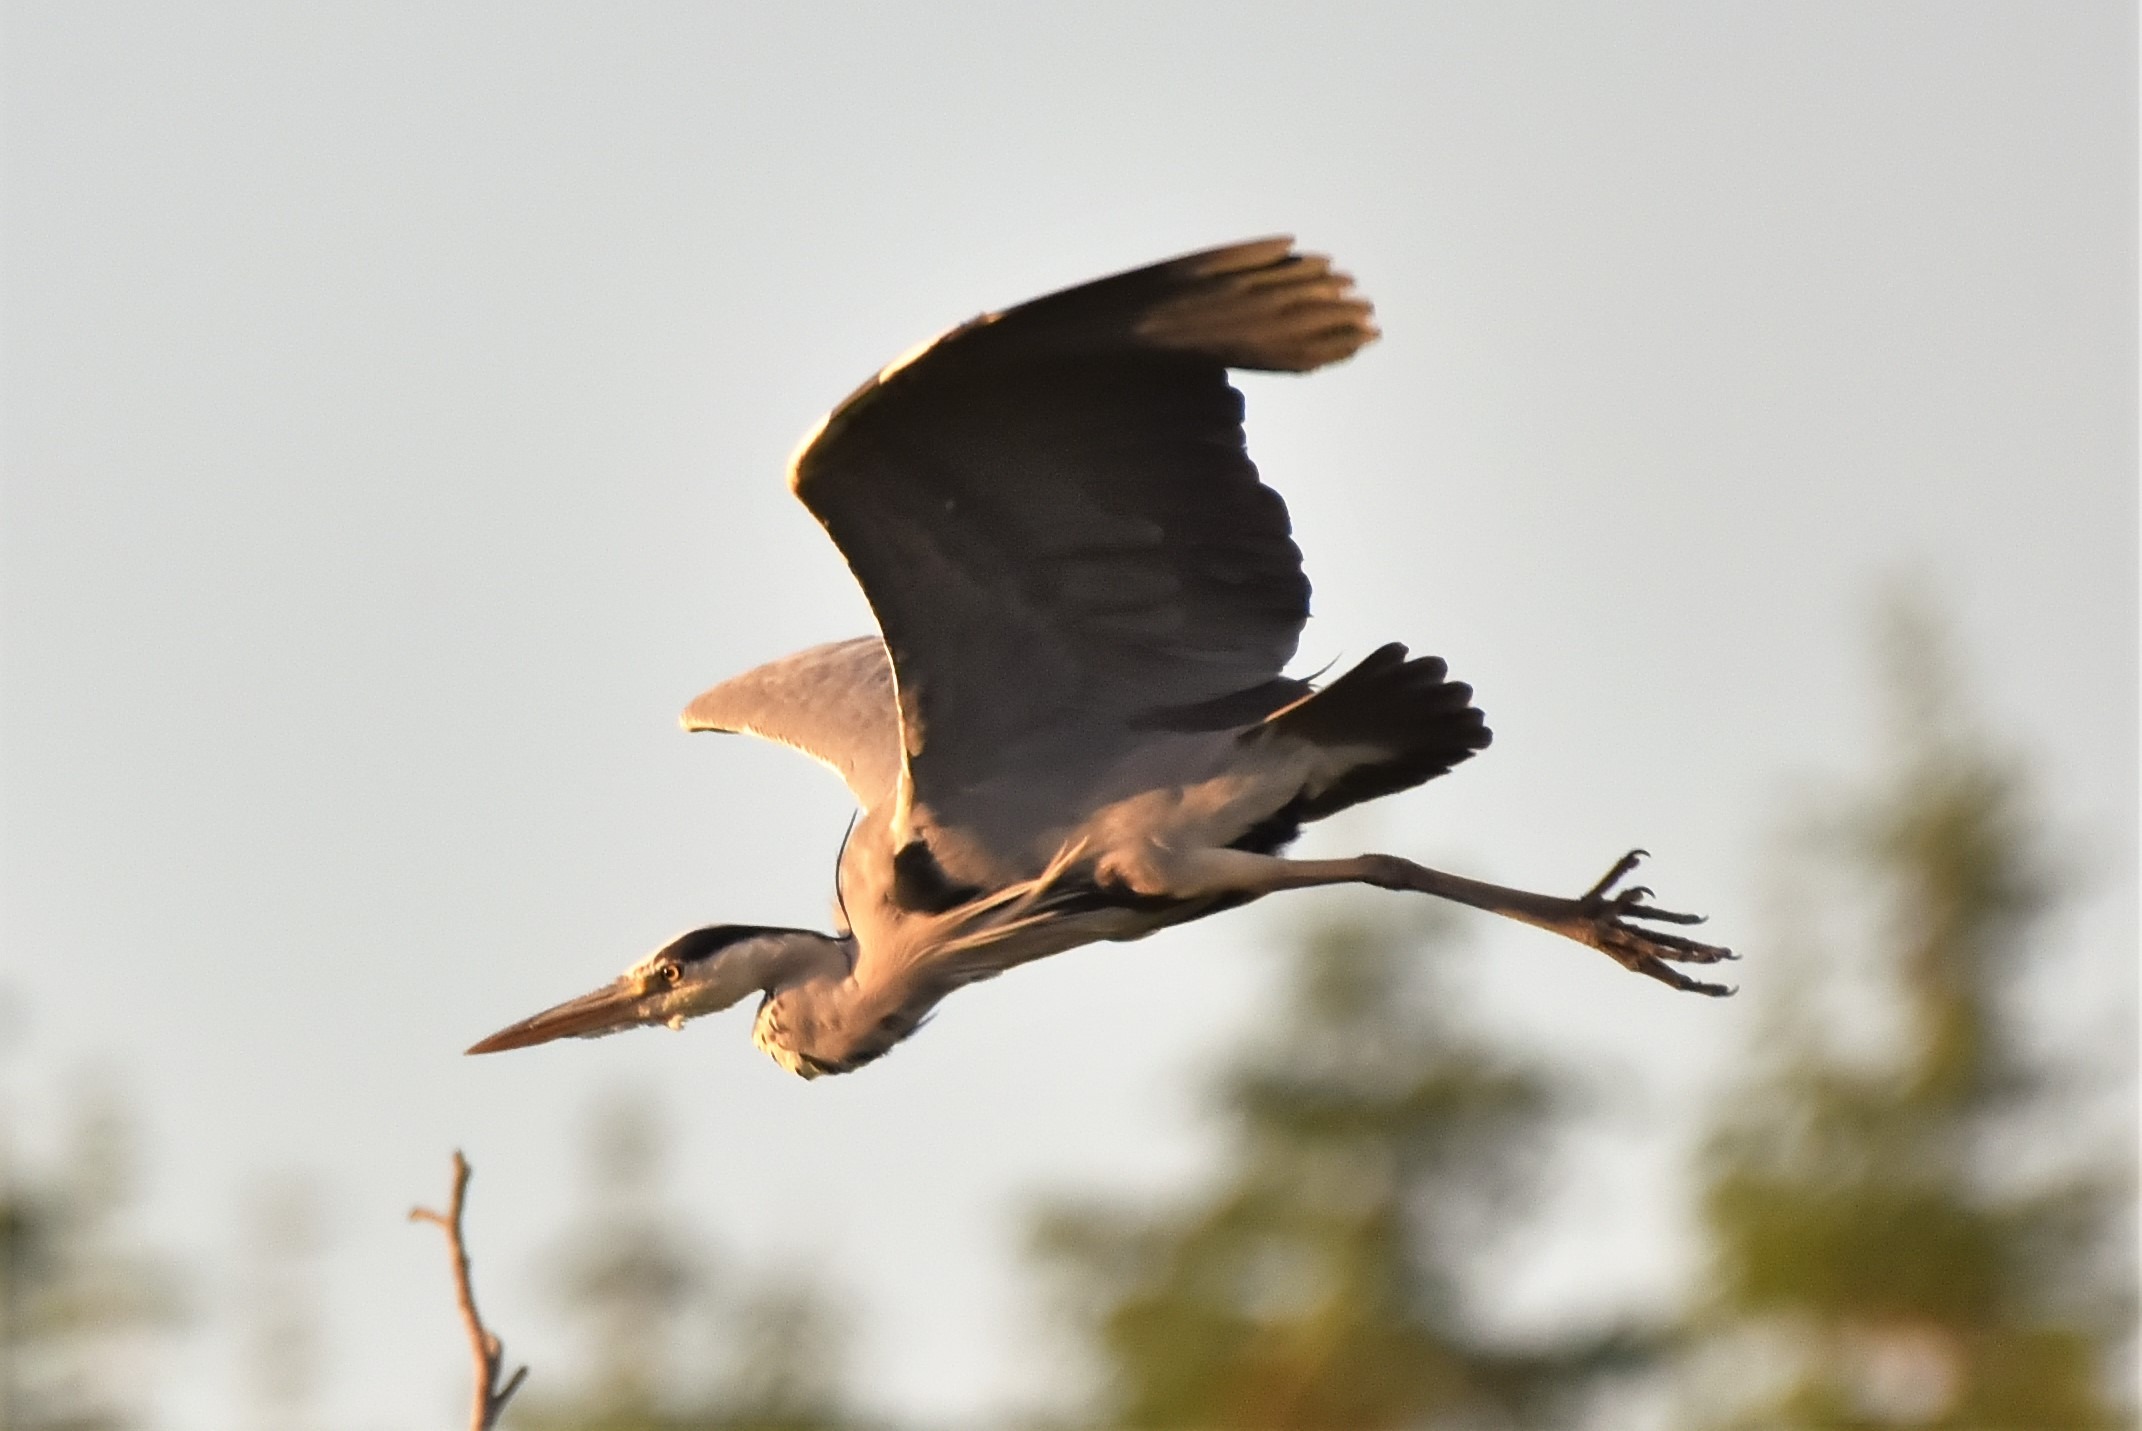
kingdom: Animalia
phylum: Chordata
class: Aves
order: Pelecaniformes
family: Ardeidae
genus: Ardea
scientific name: Ardea cinerea
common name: Fiskehejre
